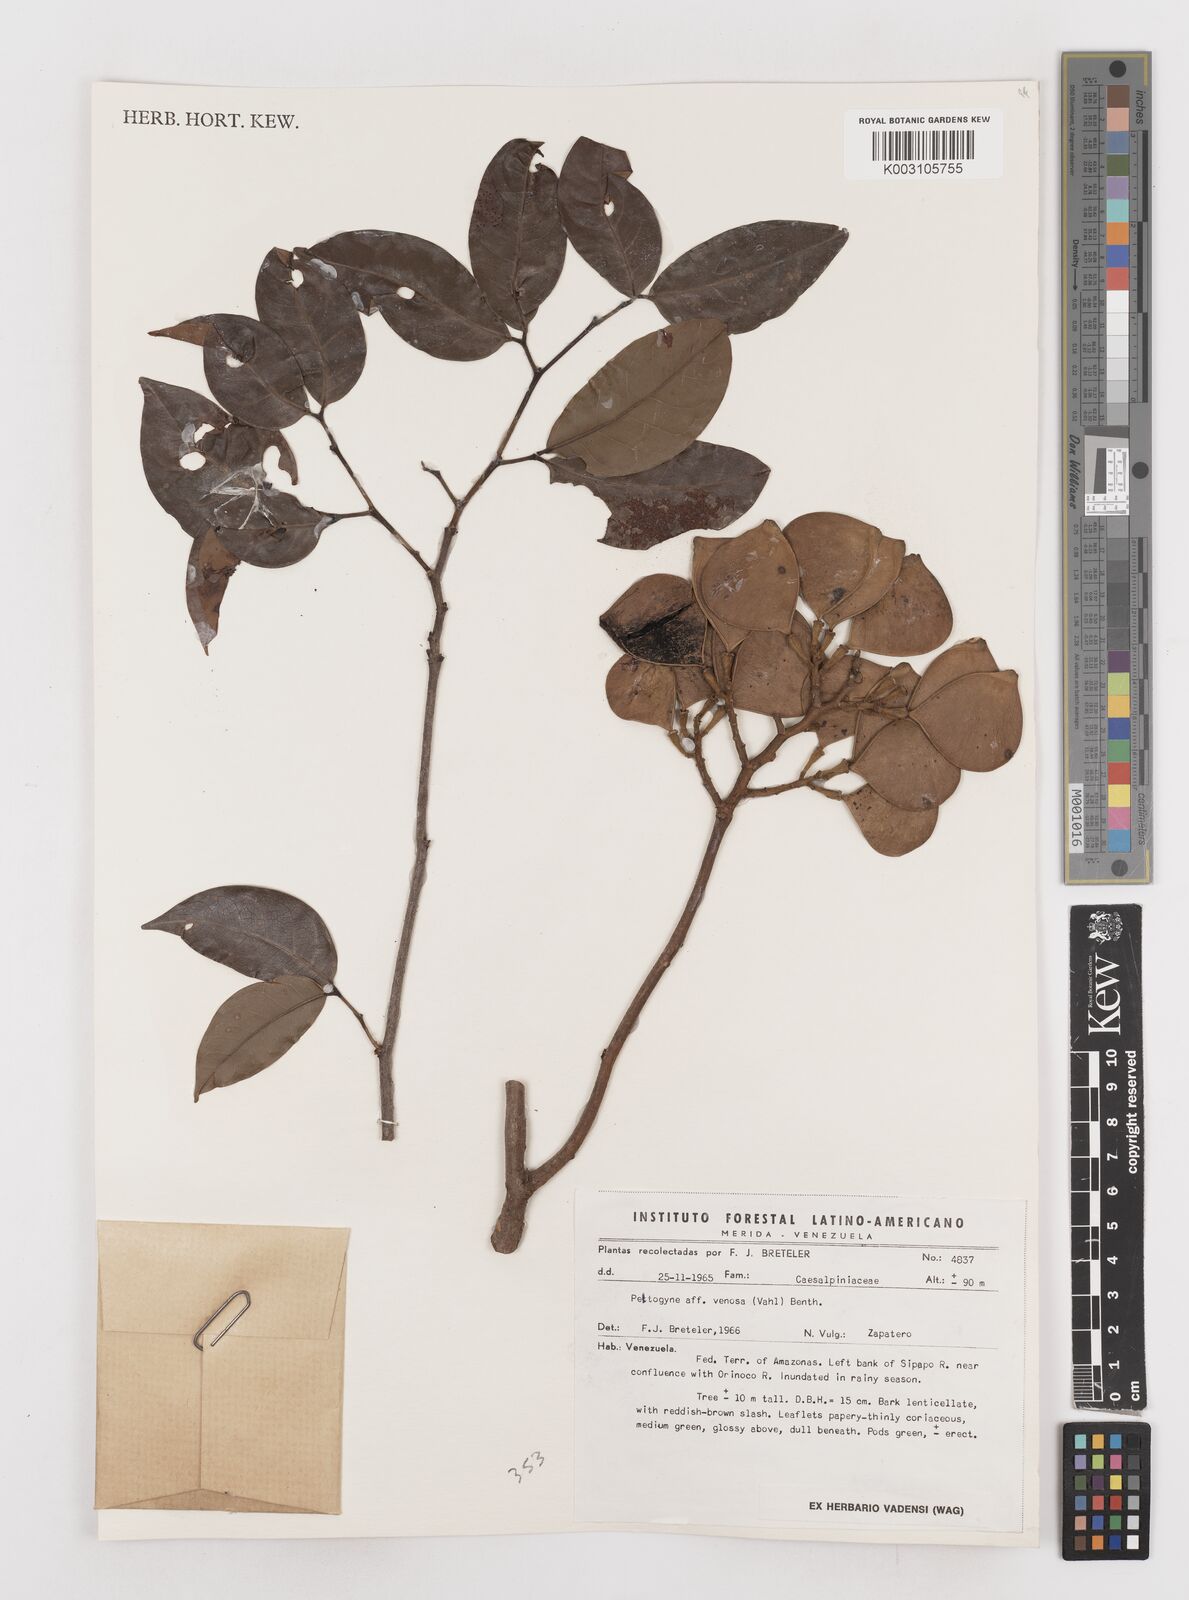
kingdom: Plantae
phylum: Tracheophyta
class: Magnoliopsida
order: Fabales
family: Fabaceae
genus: Peltogyne
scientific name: Peltogyne venosa
